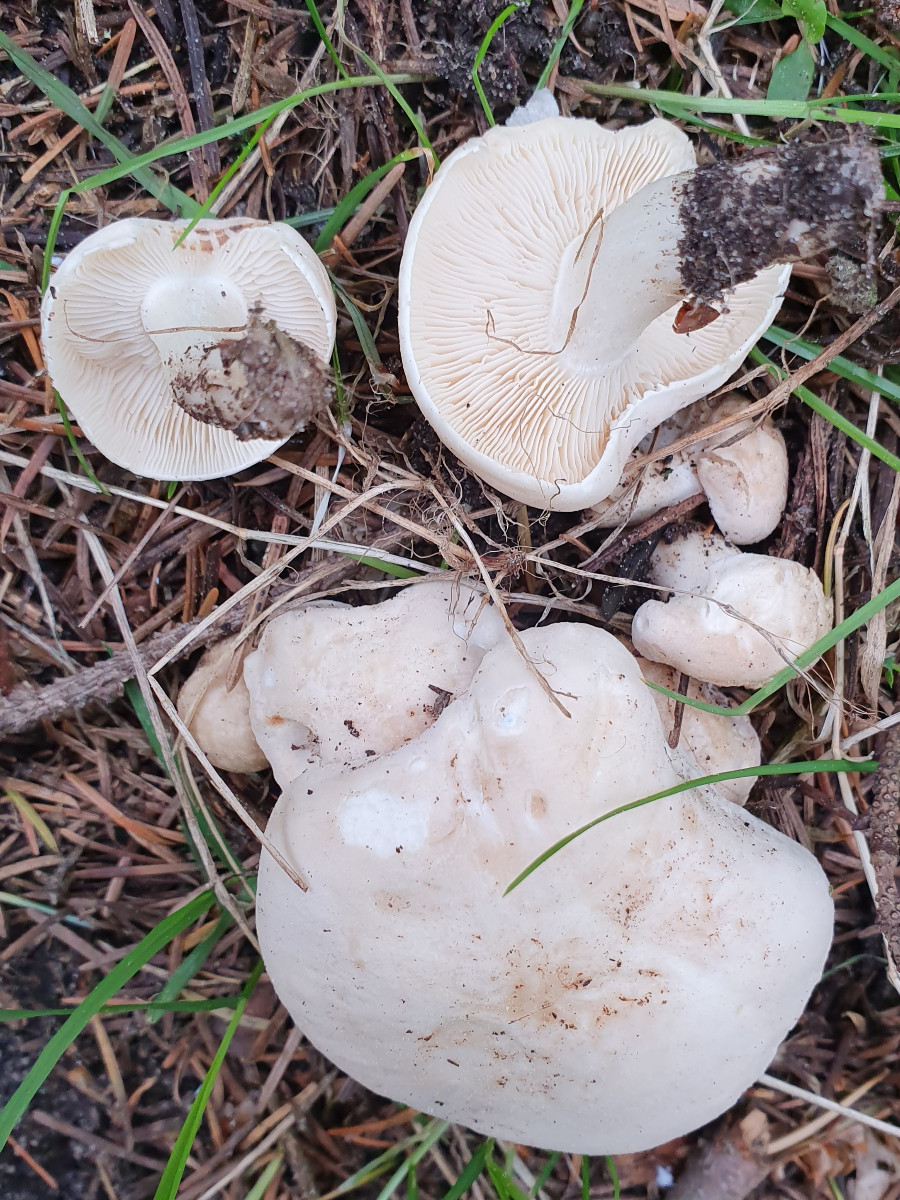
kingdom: Fungi
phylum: Basidiomycota
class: Agaricomycetes
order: Agaricales
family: Lyophyllaceae
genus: Calocybe
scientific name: Calocybe gambosa
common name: vårmusseron
